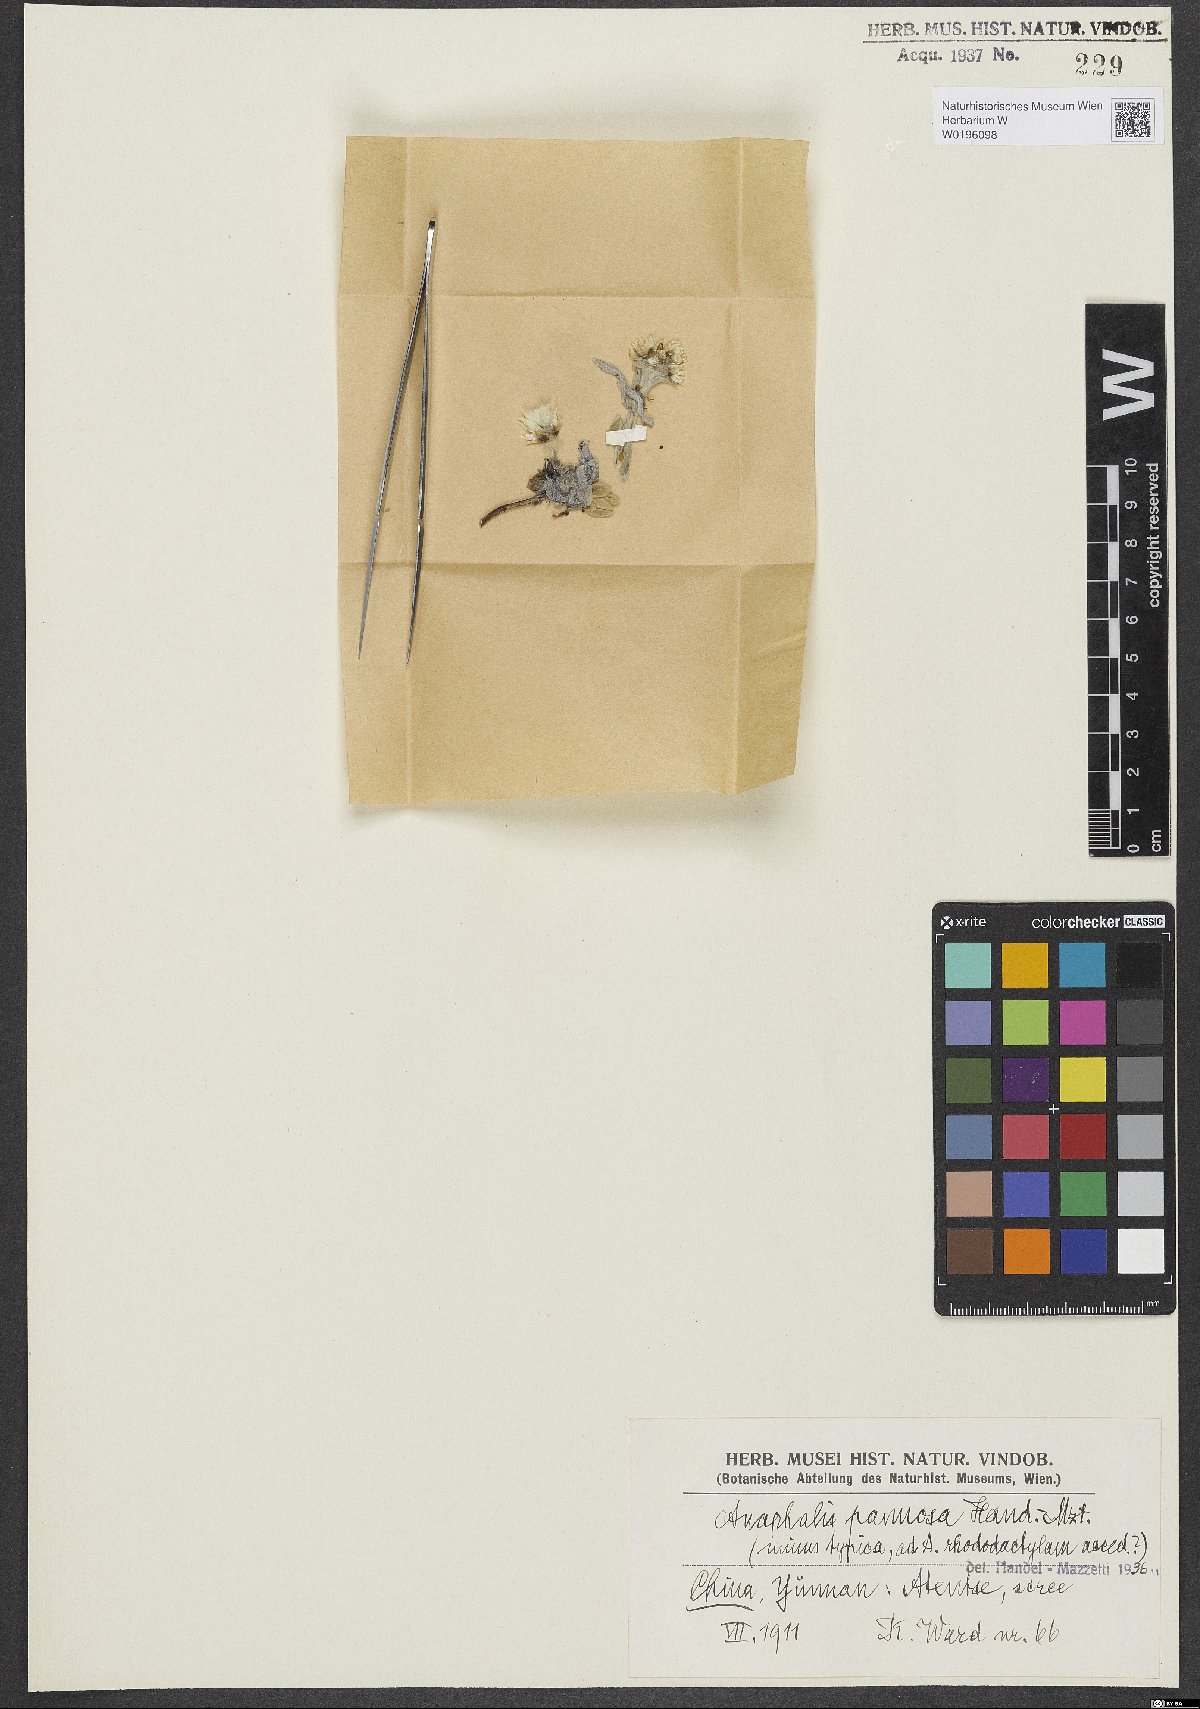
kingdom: Plantae
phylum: Tracheophyta
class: Magnoliopsida
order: Asterales
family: Asteraceae
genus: Anaphalis
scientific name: Anaphalis pannosa
